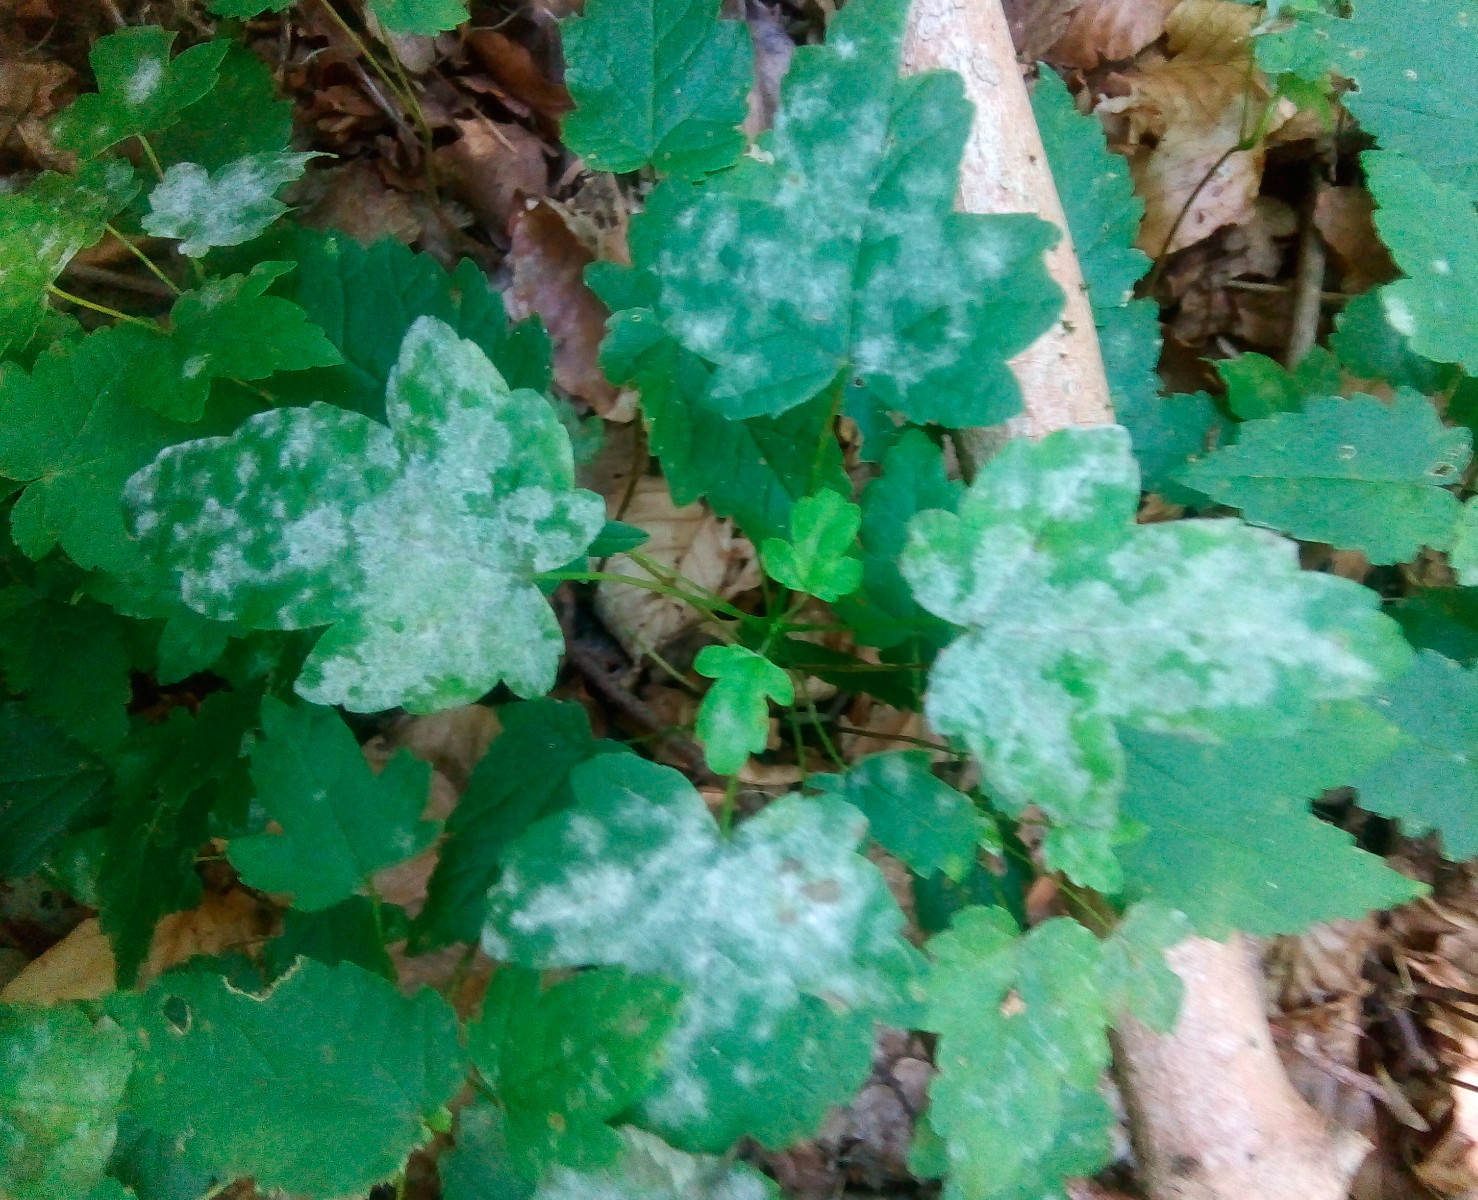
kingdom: Fungi
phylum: Ascomycota
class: Leotiomycetes
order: Helotiales
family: Erysiphaceae
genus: Sawadaea
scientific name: Sawadaea bicornis
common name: Maple mildew
